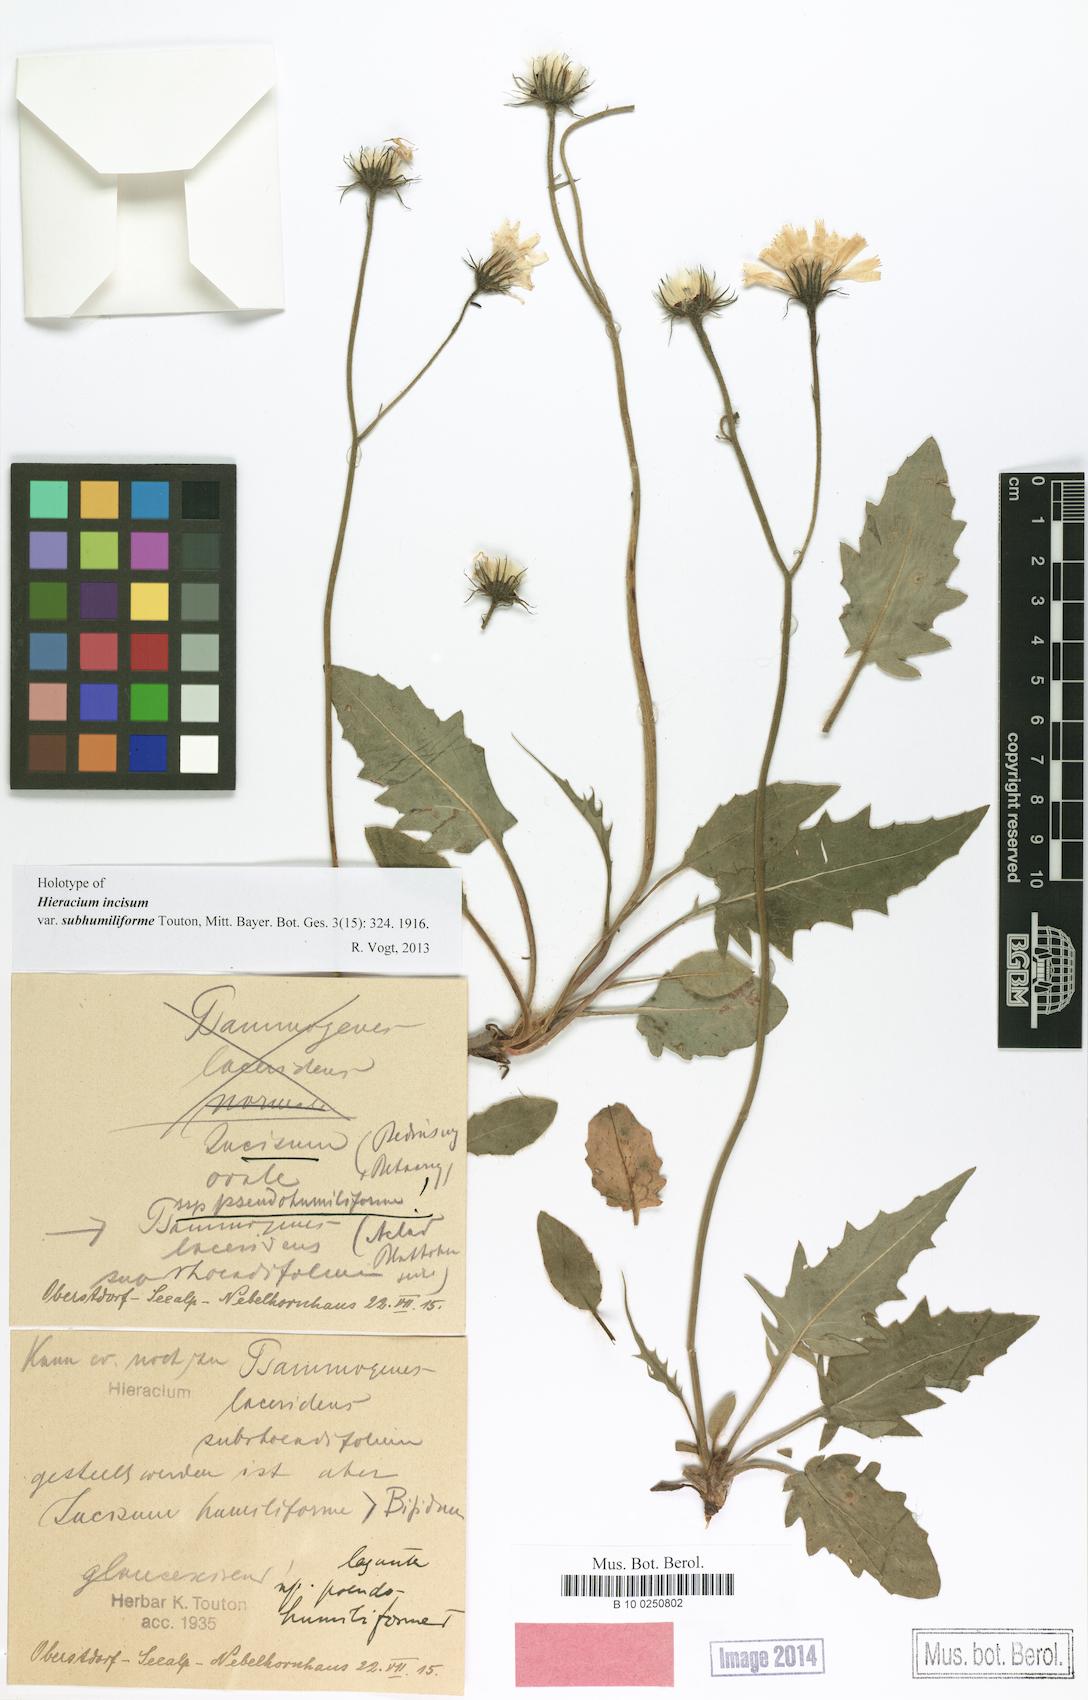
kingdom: Plantae
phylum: Tracheophyta
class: Magnoliopsida
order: Asterales
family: Asteraceae
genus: Hieracium
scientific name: Hieracium incisum
